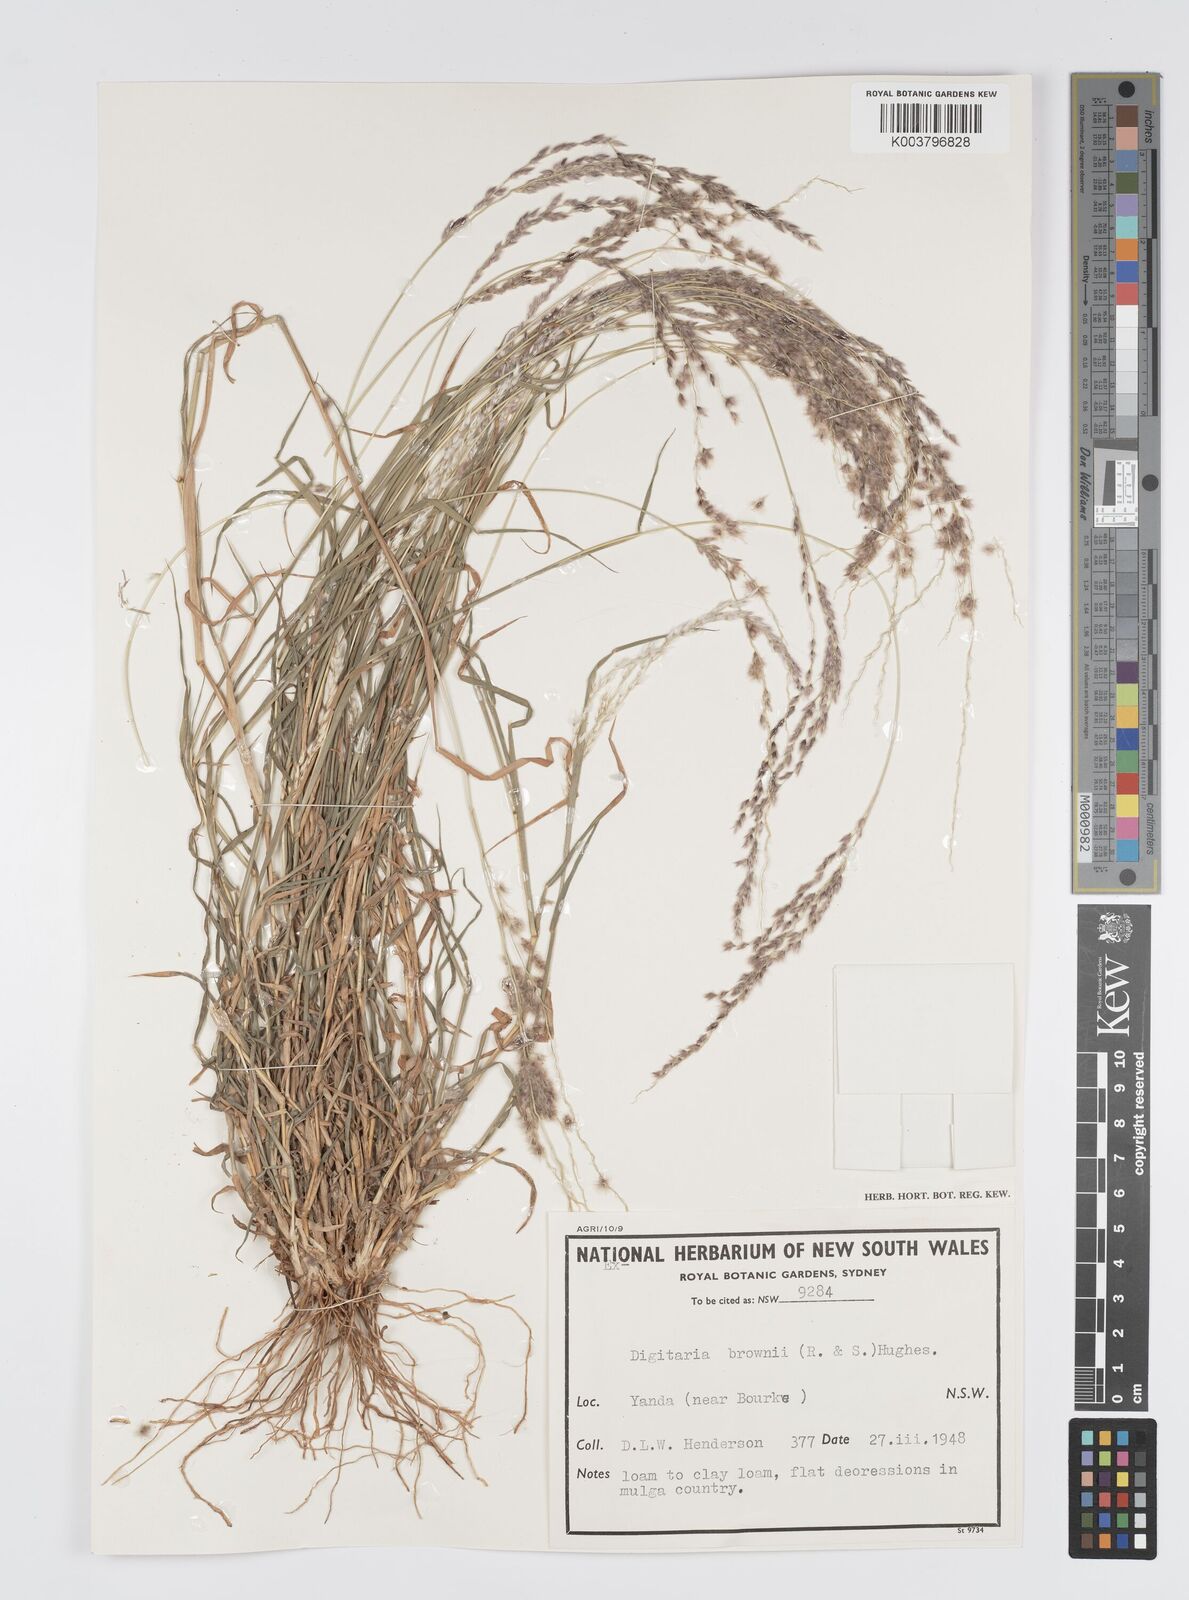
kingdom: Plantae
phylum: Tracheophyta
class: Liliopsida
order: Poales
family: Poaceae
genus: Digitaria
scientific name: Digitaria brownii
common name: Cotton grass
